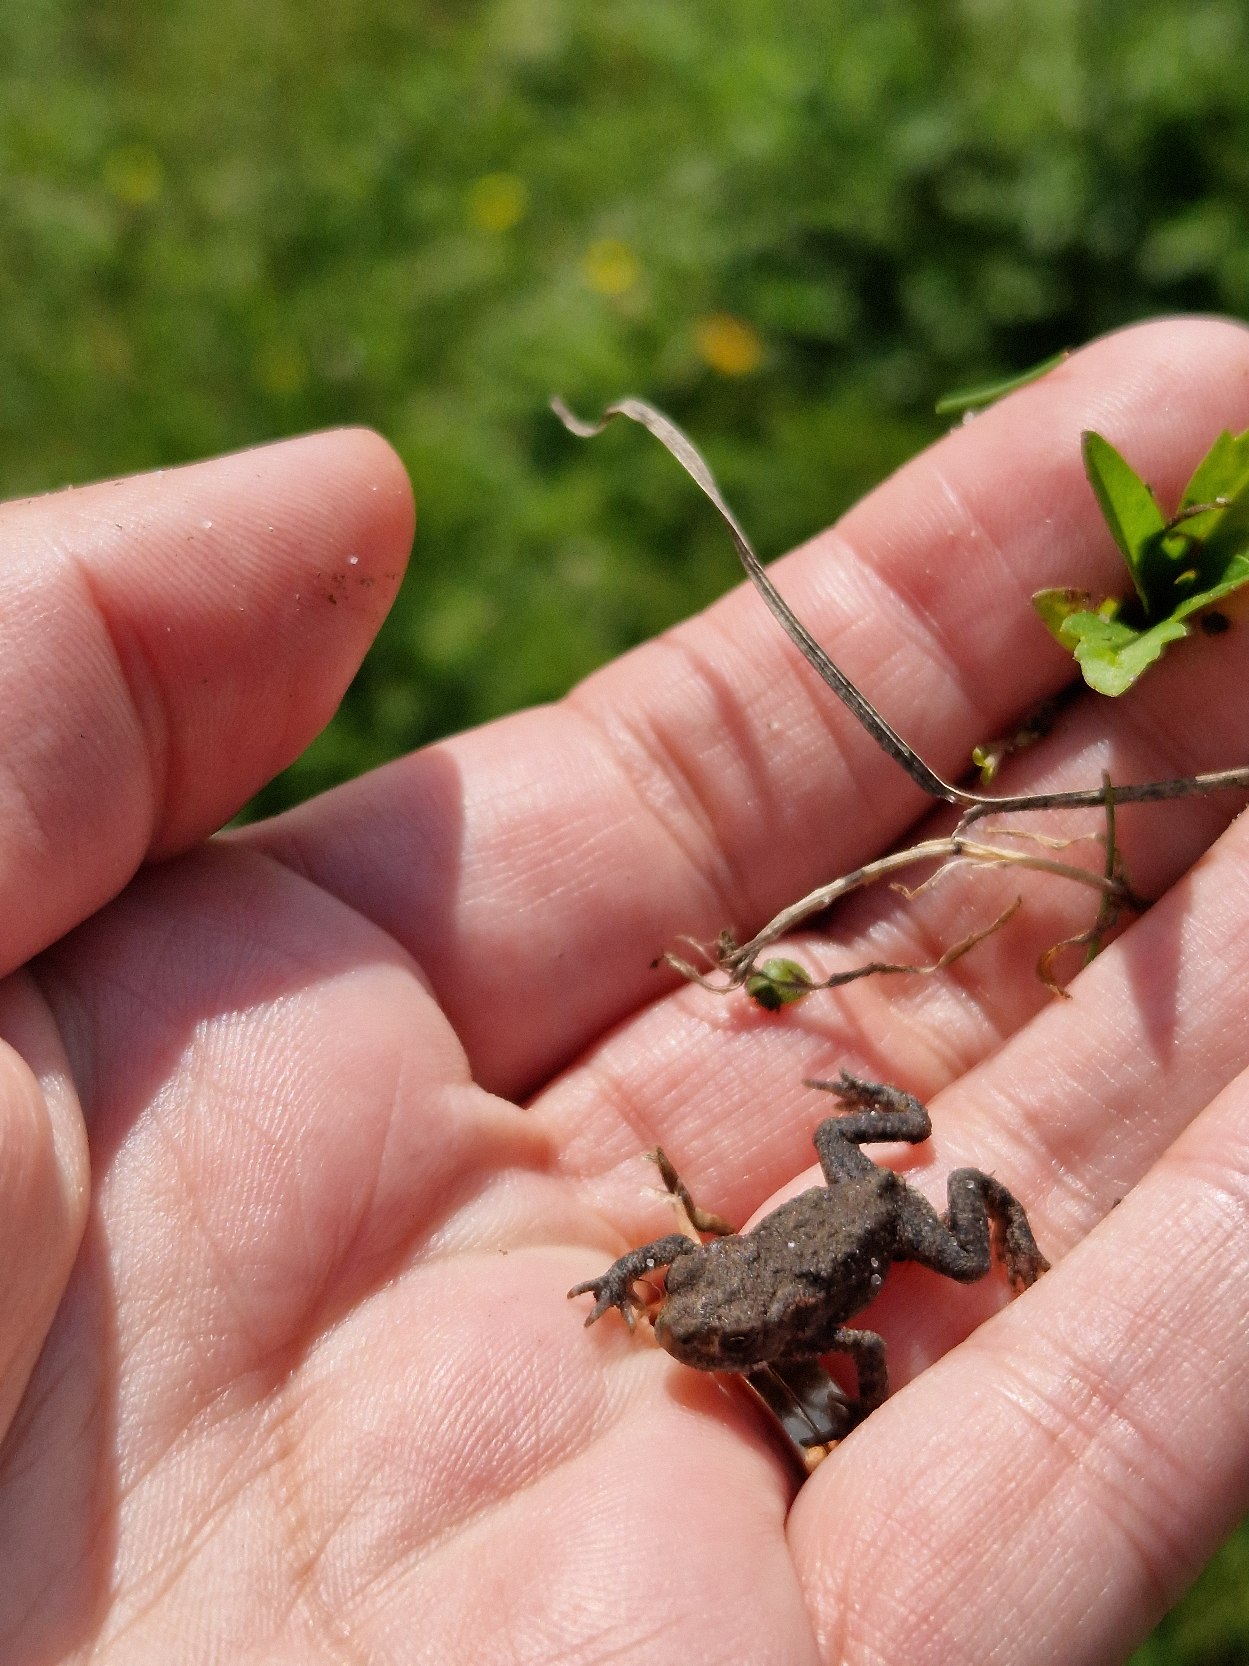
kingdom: Animalia
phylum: Chordata
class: Amphibia
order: Anura
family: Bufonidae
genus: Bufo
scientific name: Bufo bufo
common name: Skrubtudse
